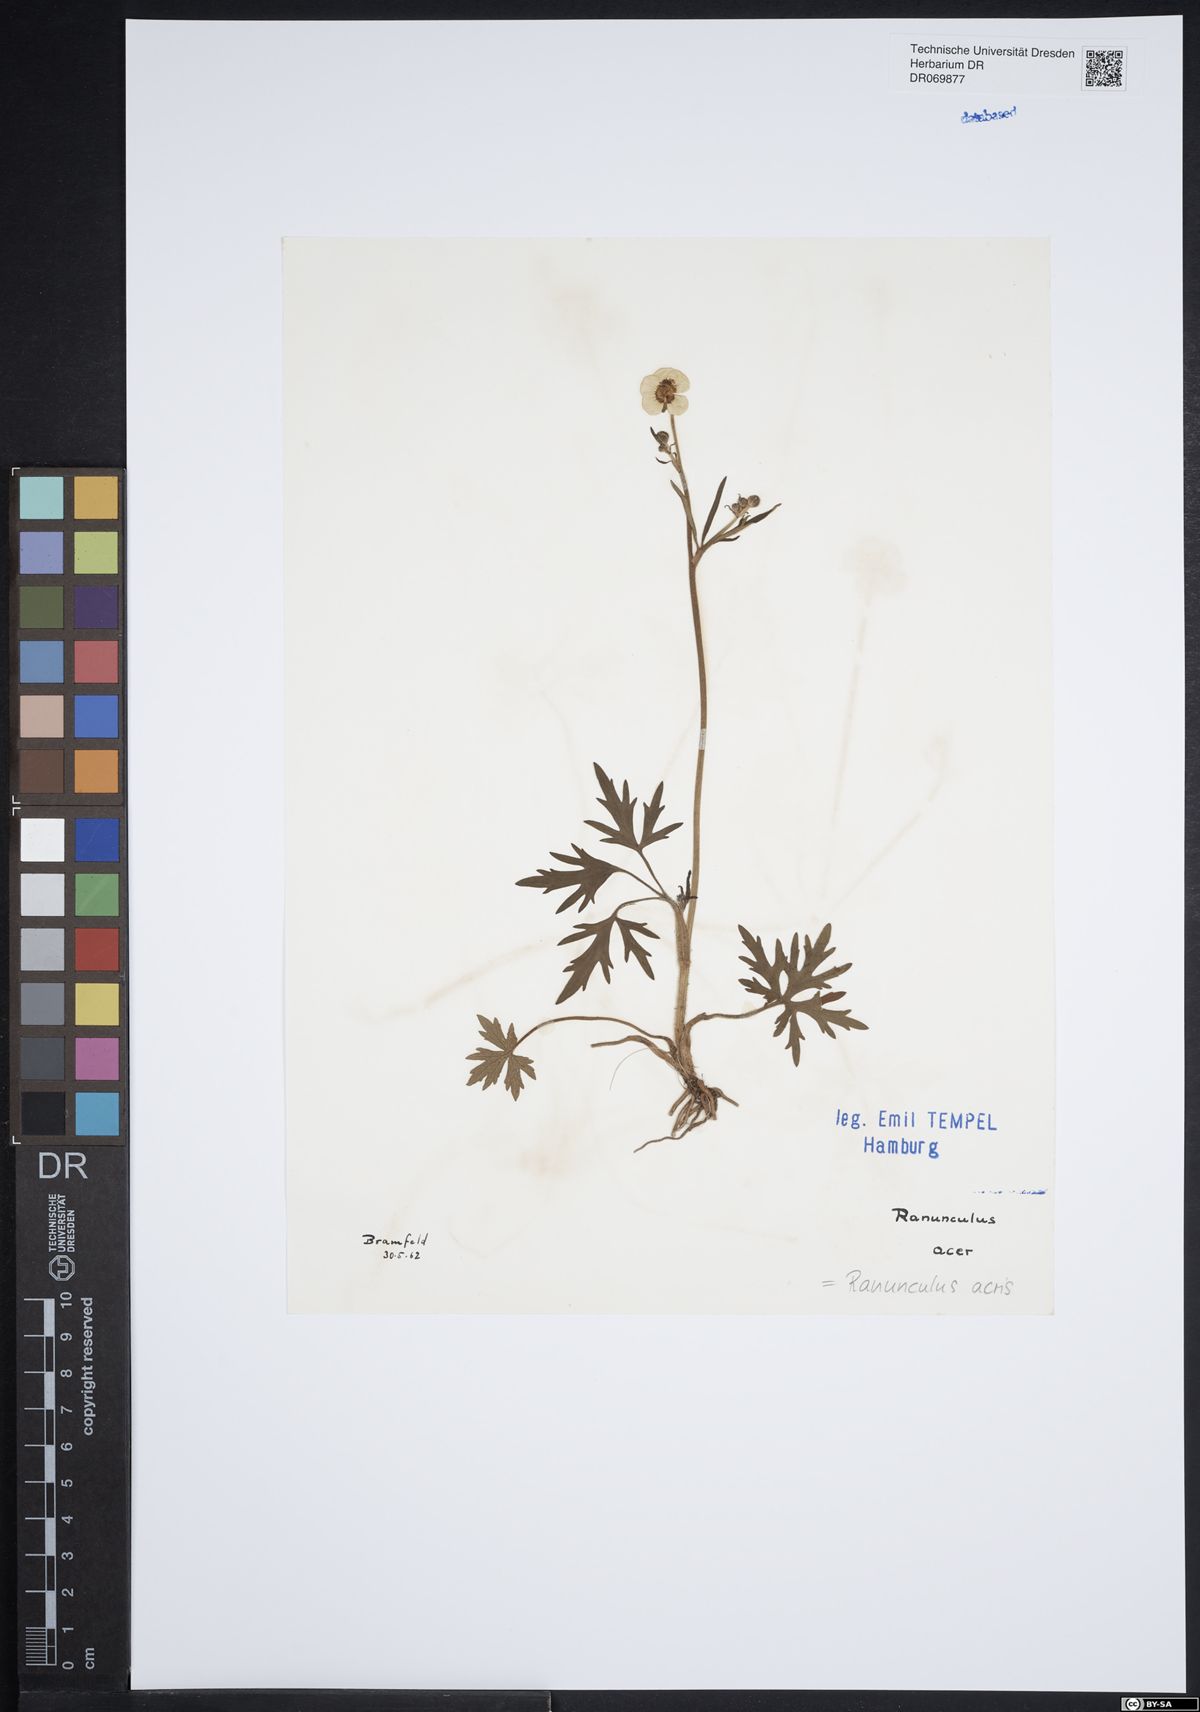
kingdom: Plantae
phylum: Tracheophyta
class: Magnoliopsida
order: Ranunculales
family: Ranunculaceae
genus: Ranunculus
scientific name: Ranunculus acris
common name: Meadow buttercup
